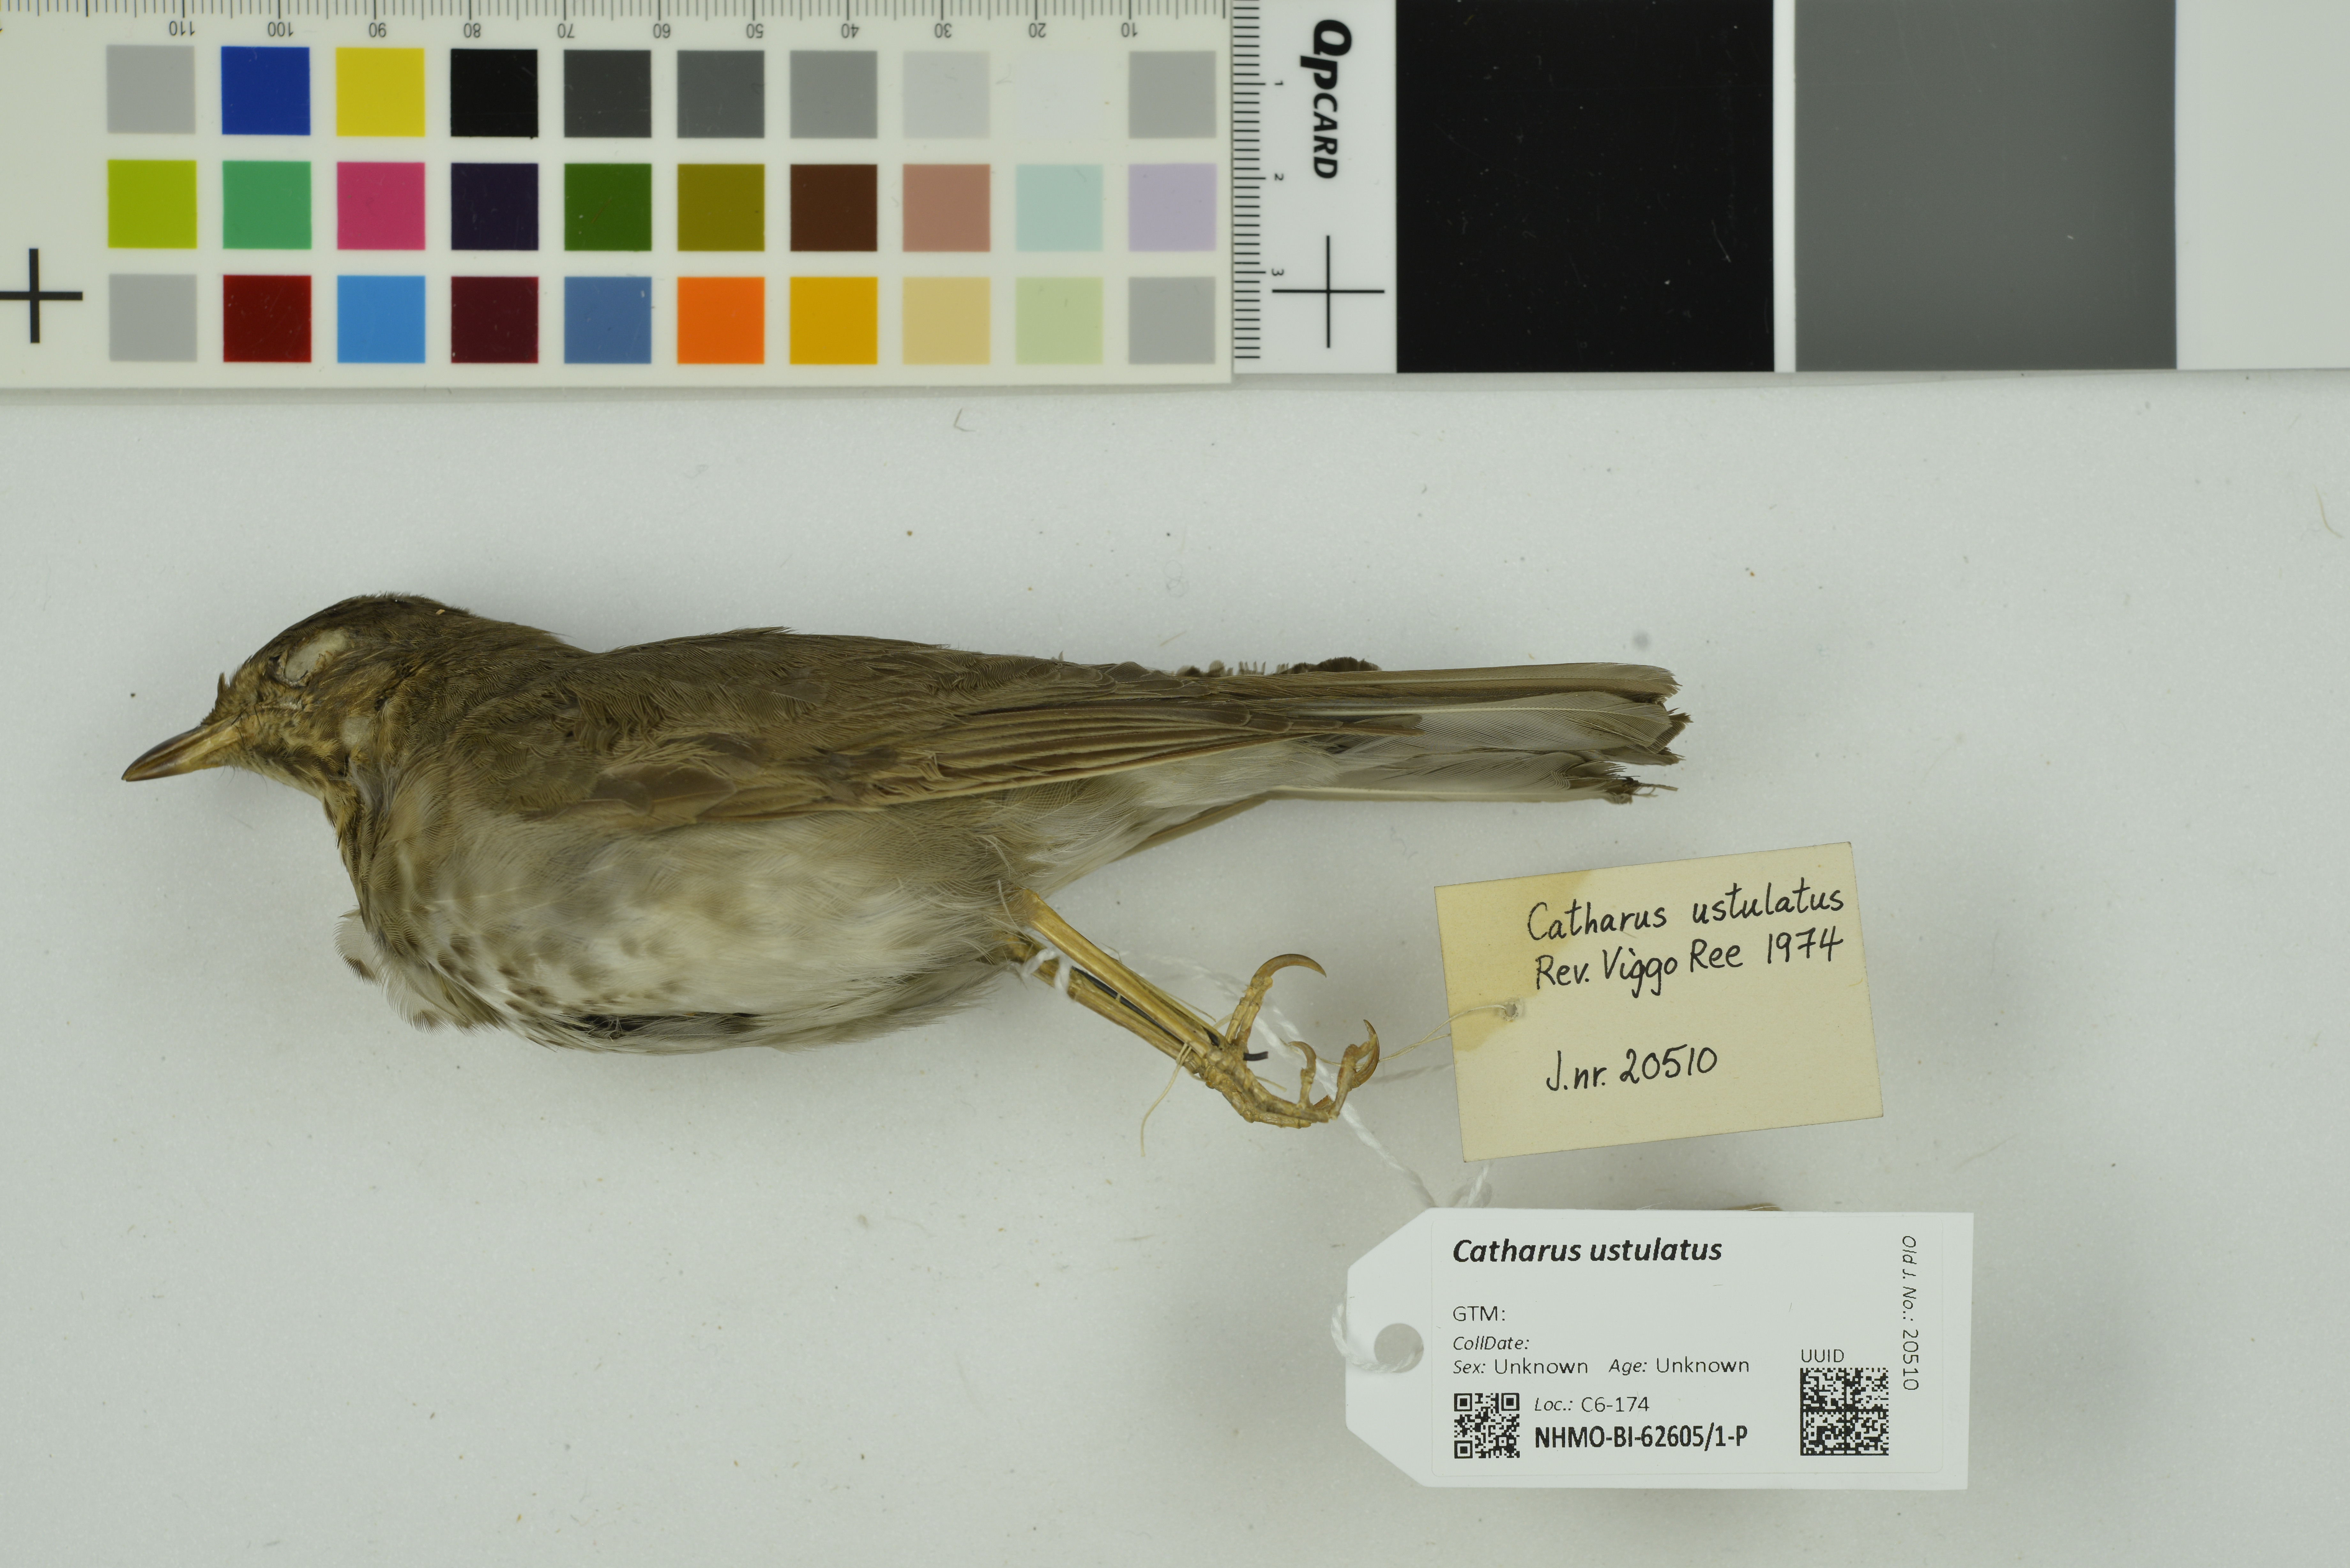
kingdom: Animalia
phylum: Chordata
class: Aves
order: Passeriformes
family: Turdidae
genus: Catharus
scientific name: Catharus ustulatus
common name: Swainson's thrush
